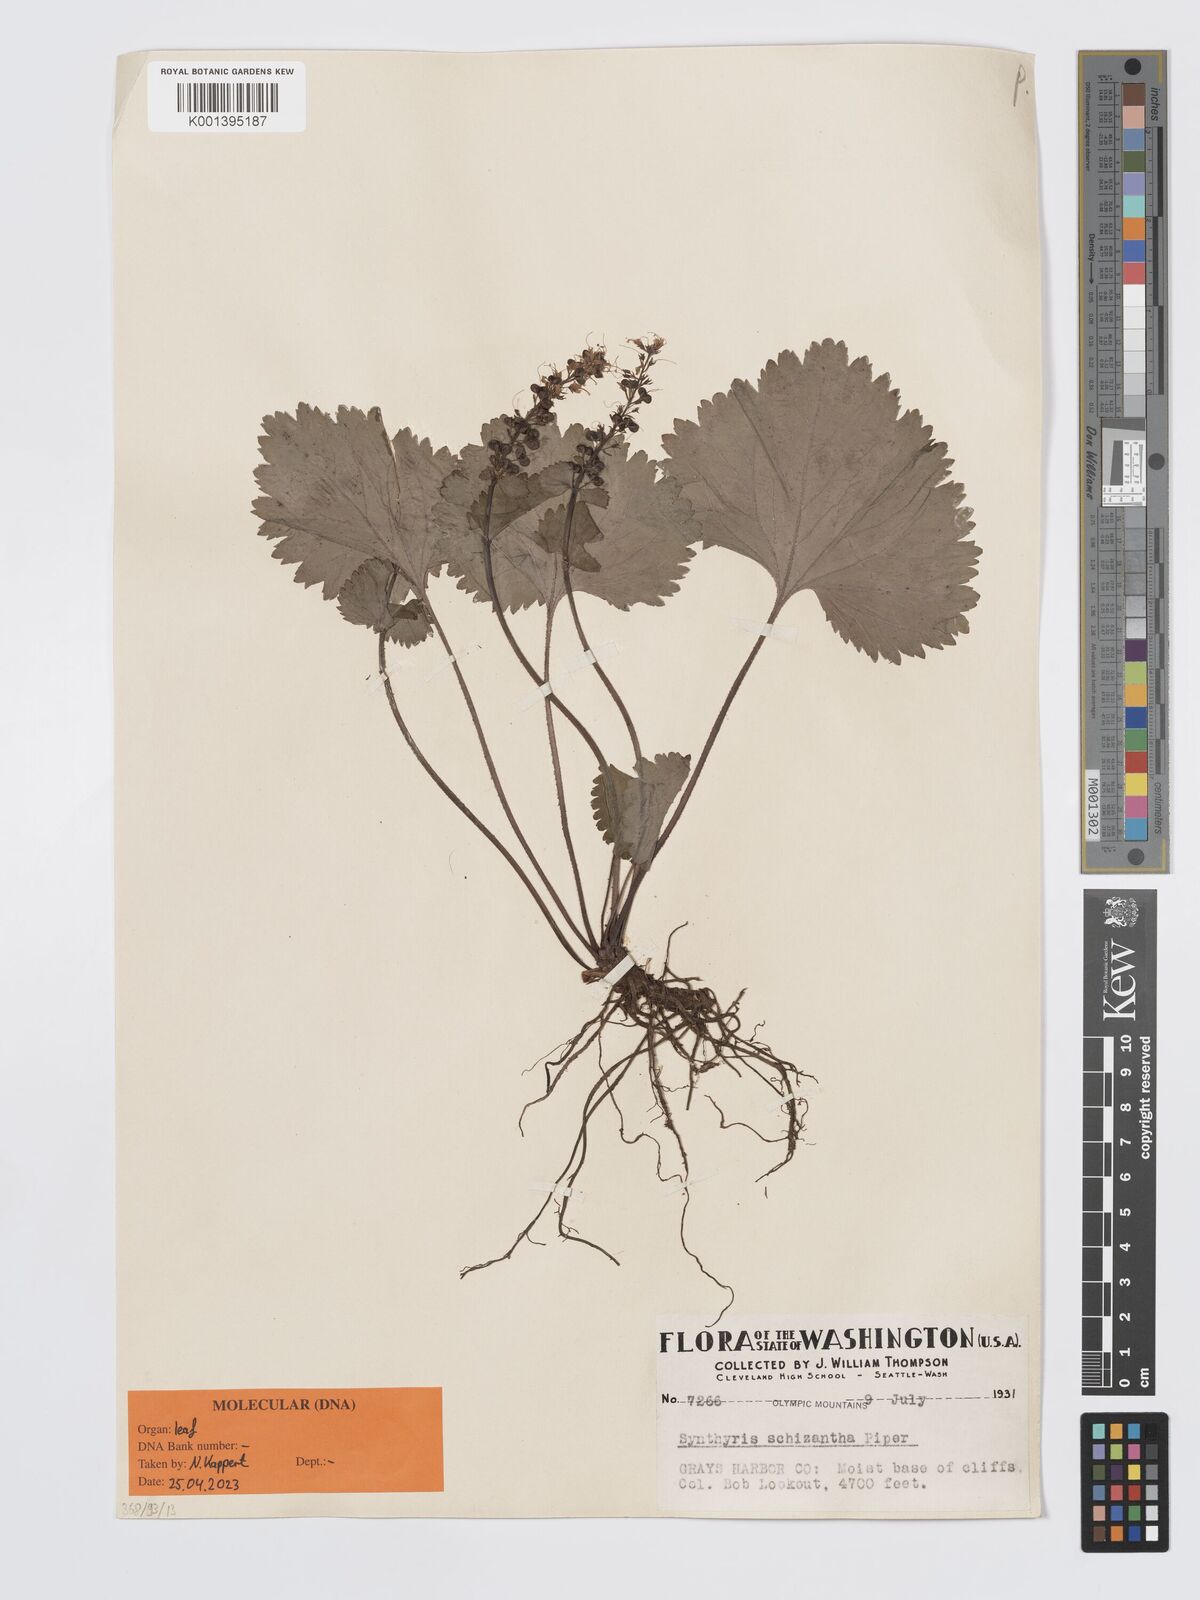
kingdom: Plantae
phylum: Tracheophyta
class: Magnoliopsida
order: Lamiales
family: Plantaginaceae
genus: Synthyris
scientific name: Synthyris schizantha
